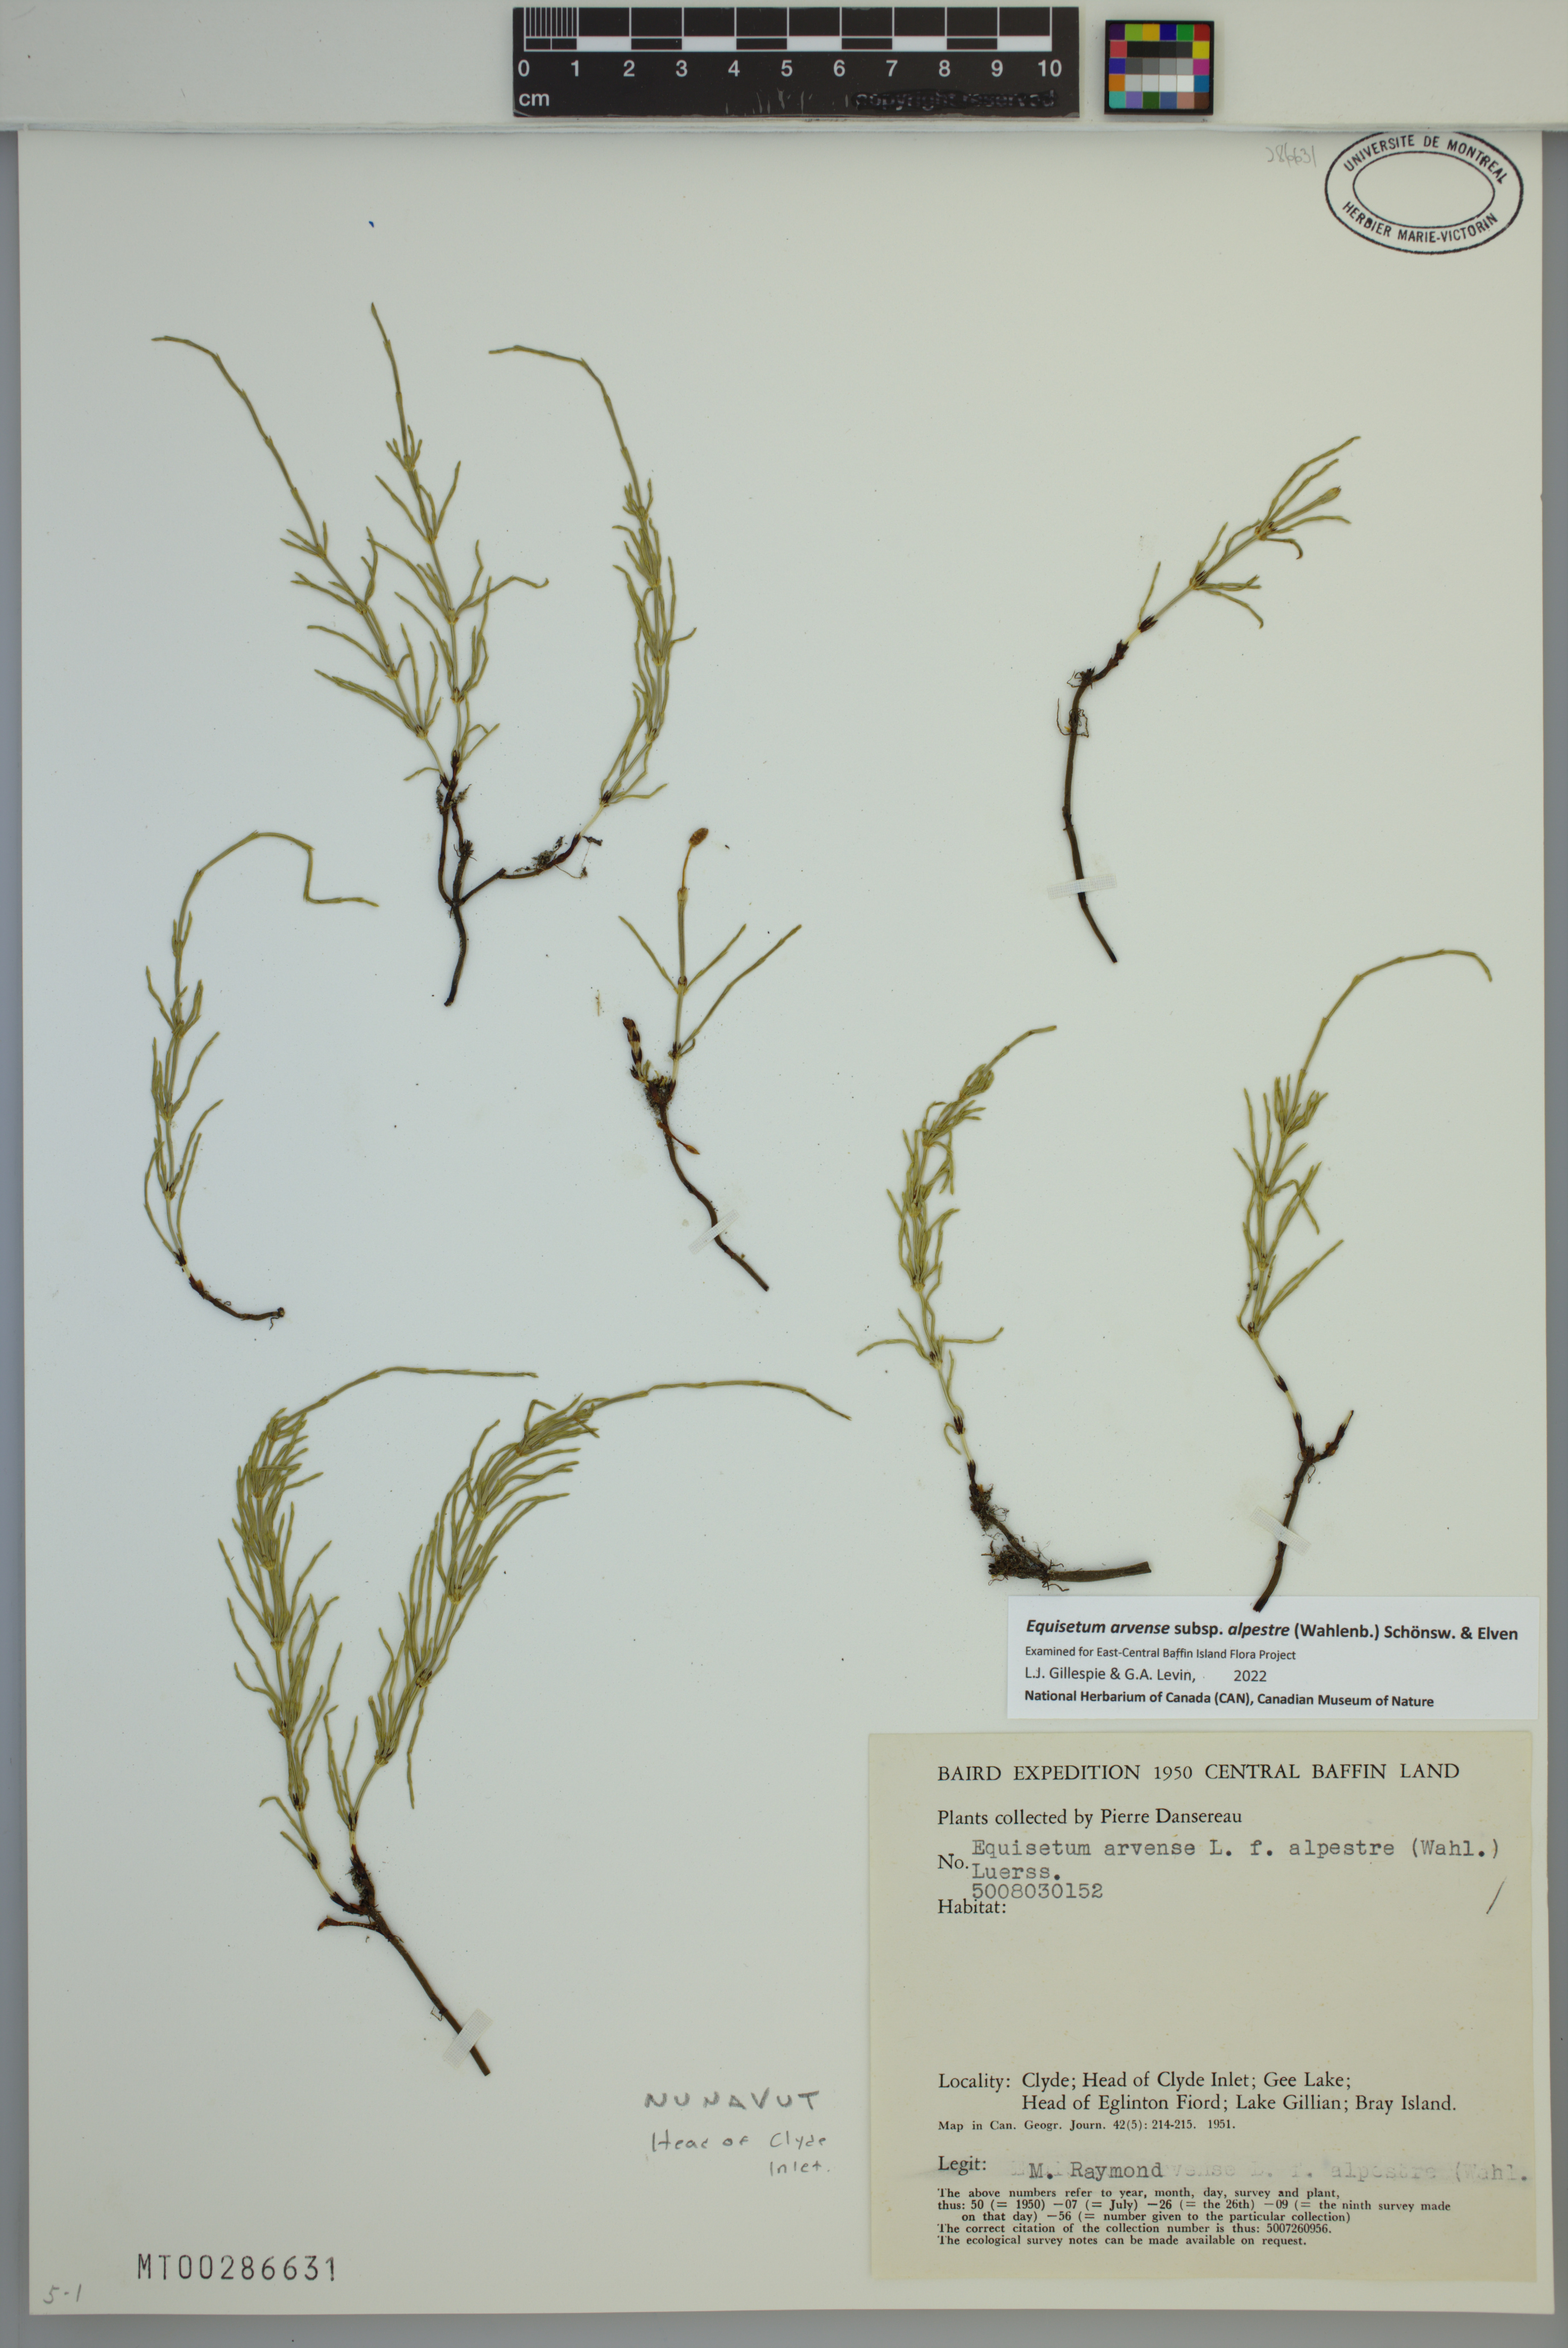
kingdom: Plantae
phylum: Tracheophyta
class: Polypodiopsida
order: Equisetales
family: Equisetaceae
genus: Equisetum
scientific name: Equisetum arvense
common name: Field horsetail
